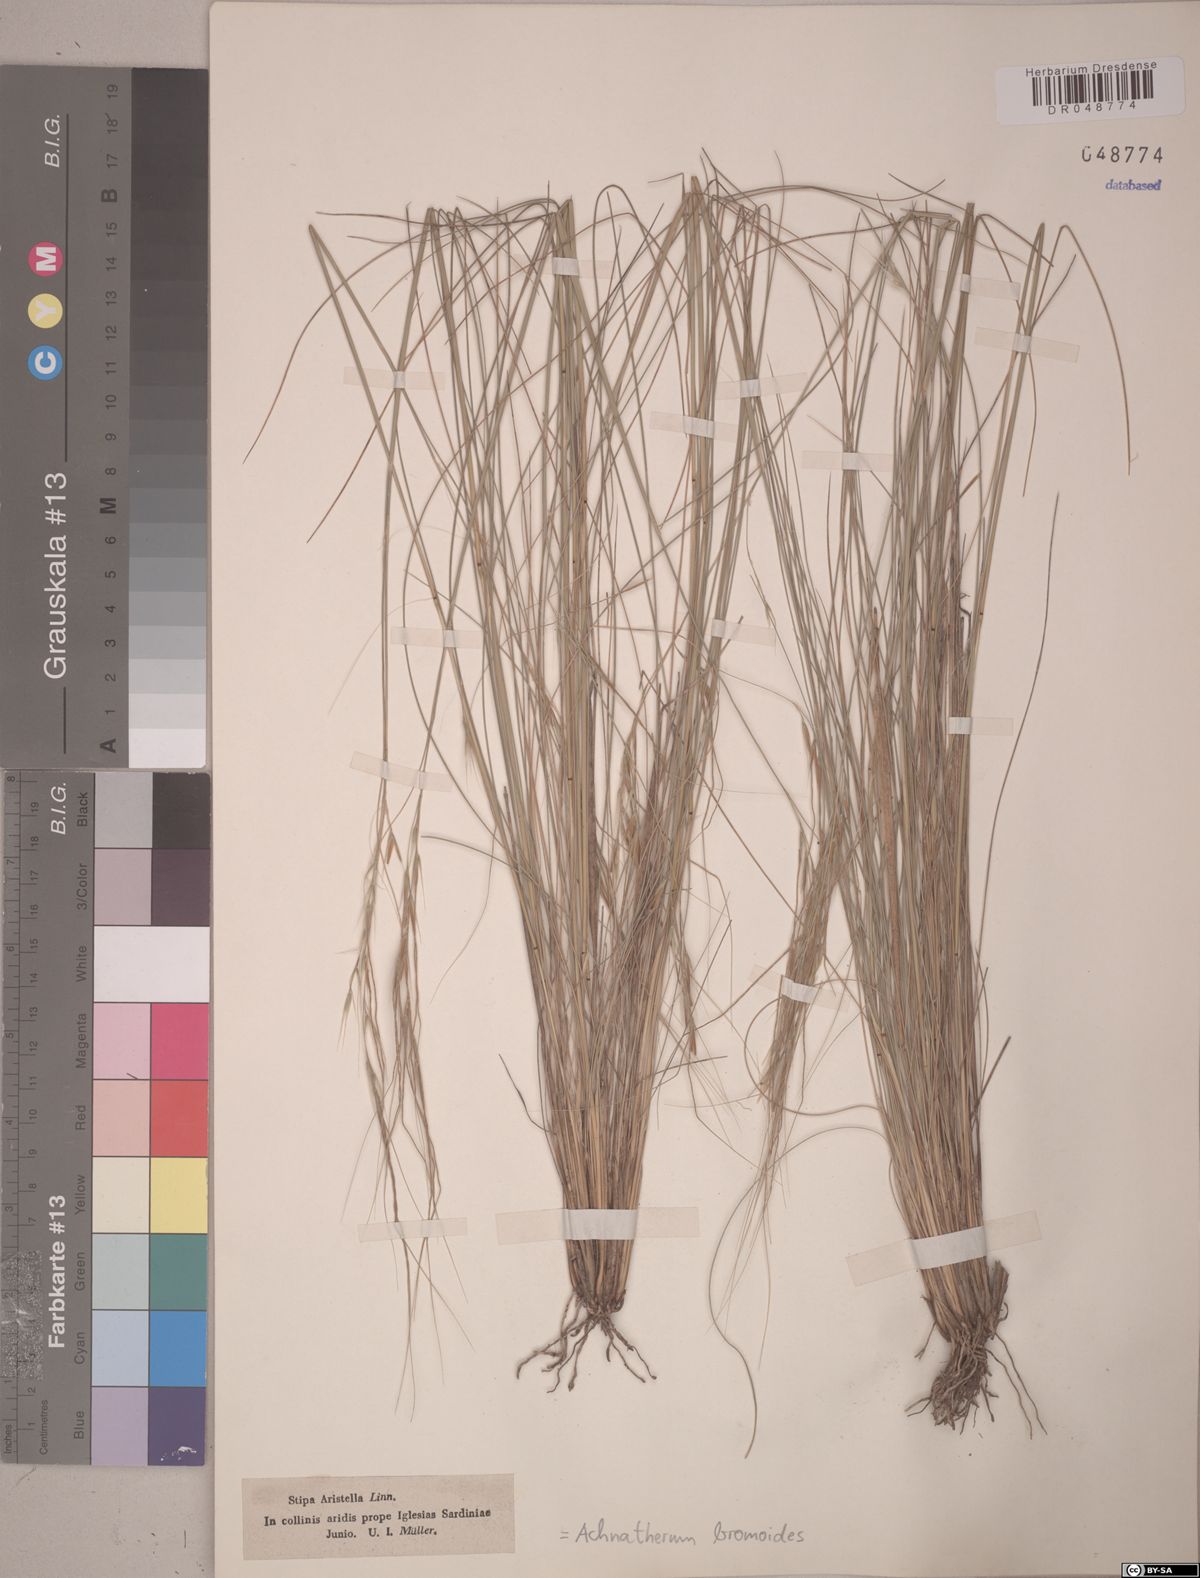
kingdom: Plantae
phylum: Tracheophyta
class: Liliopsida
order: Poales
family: Poaceae
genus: Achnatherum
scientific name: Achnatherum bromoides
